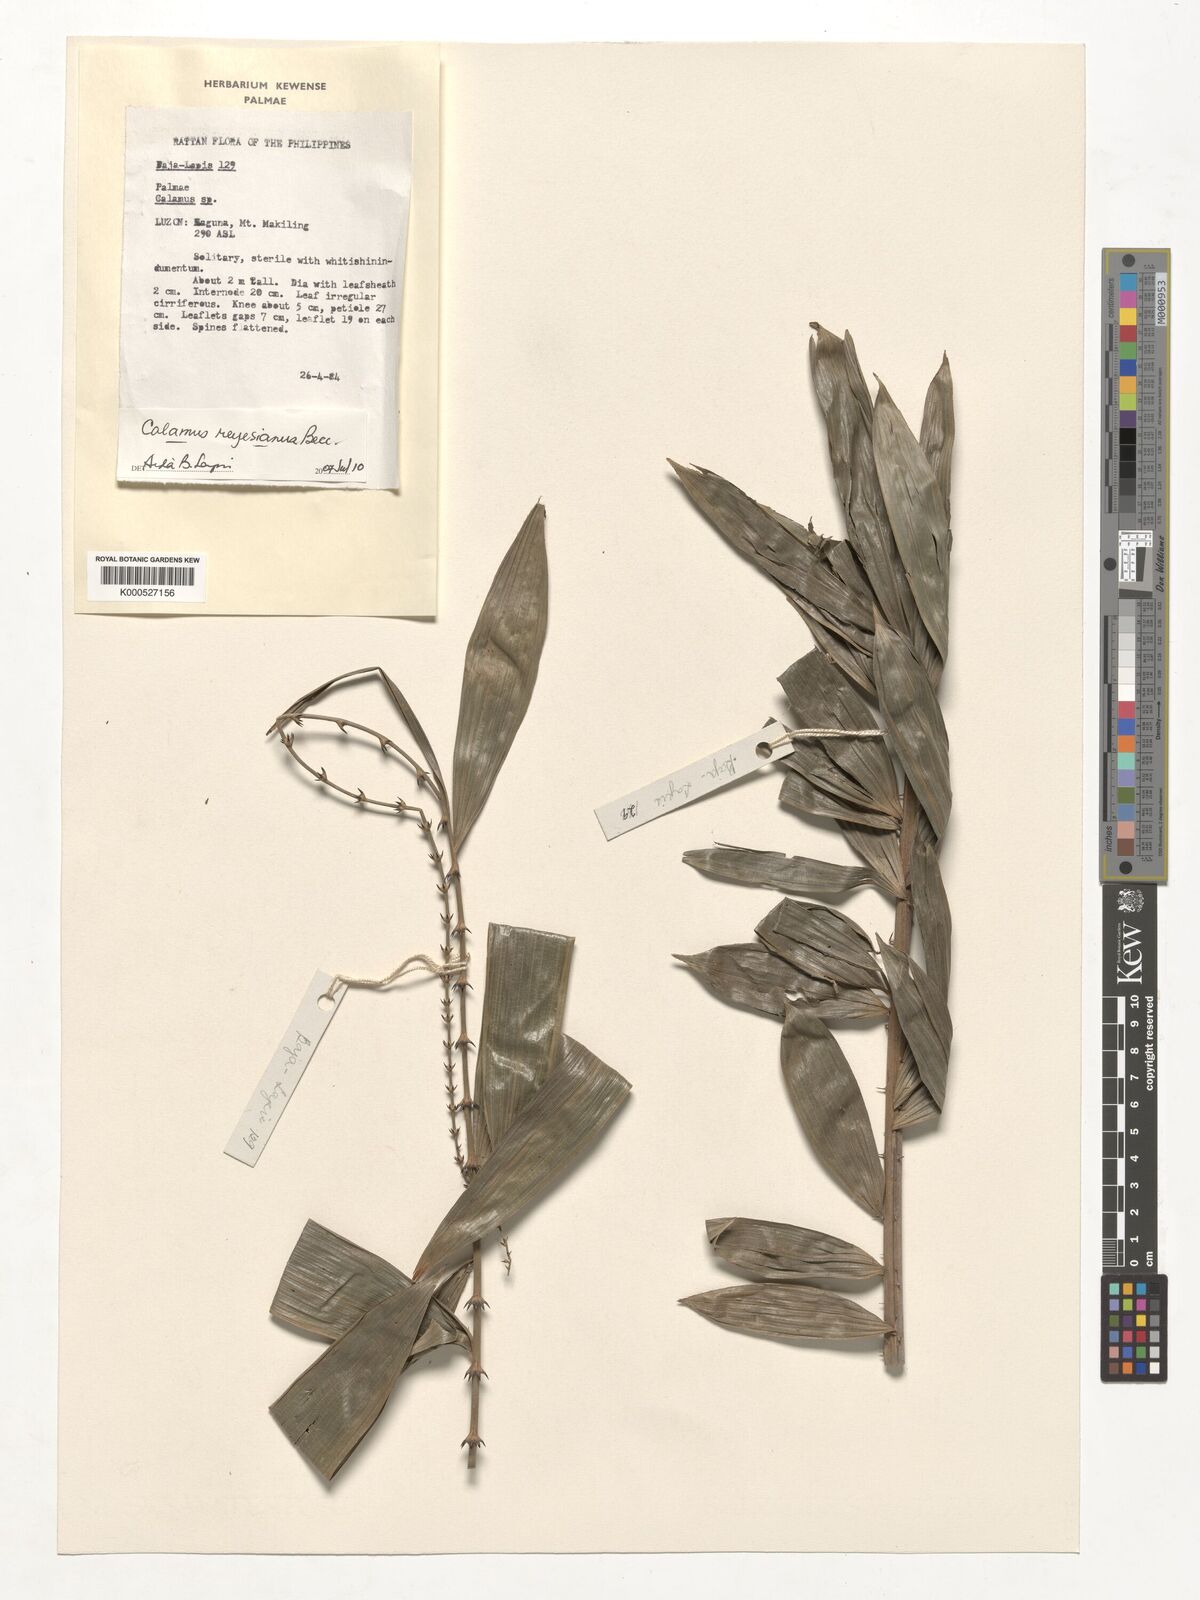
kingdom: Plantae
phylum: Tracheophyta
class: Liliopsida
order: Arecales
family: Arecaceae
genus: Calamus
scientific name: Calamus moseleyanus
